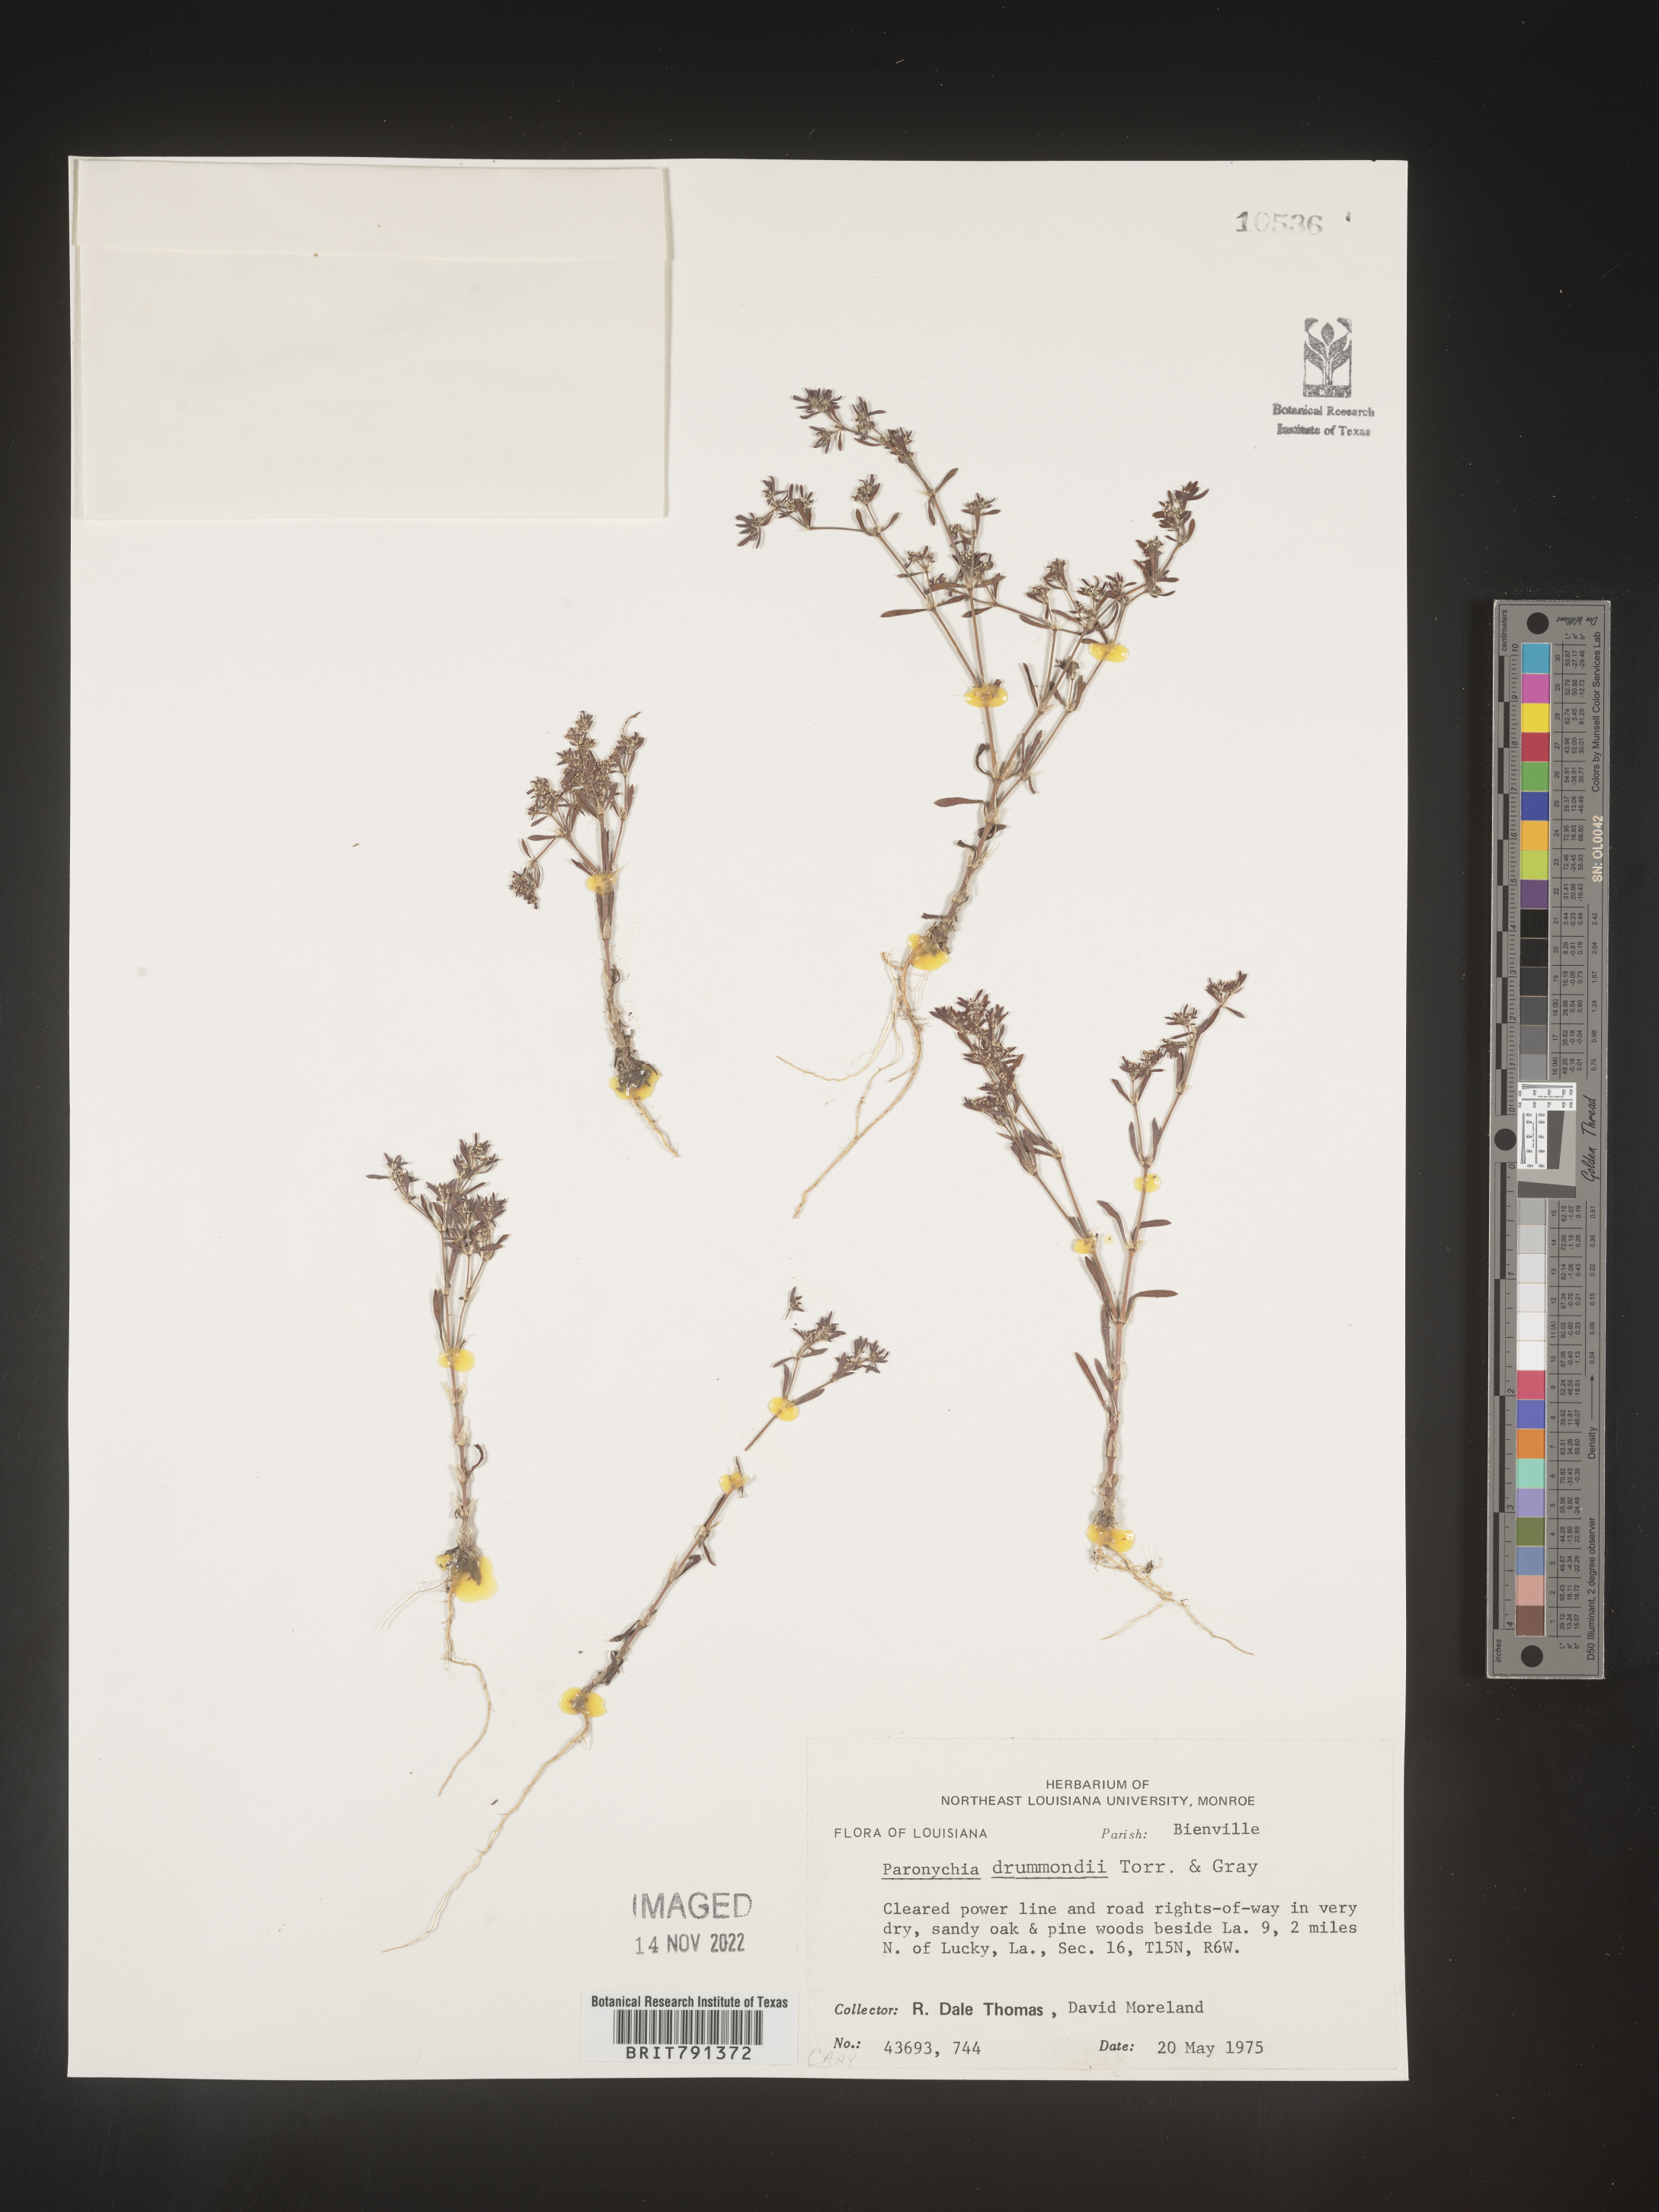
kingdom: Plantae
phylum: Tracheophyta
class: Magnoliopsida
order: Caryophyllales
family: Caryophyllaceae
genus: Paronychia
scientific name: Paronychia drummondii
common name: Drummond's nailwort
